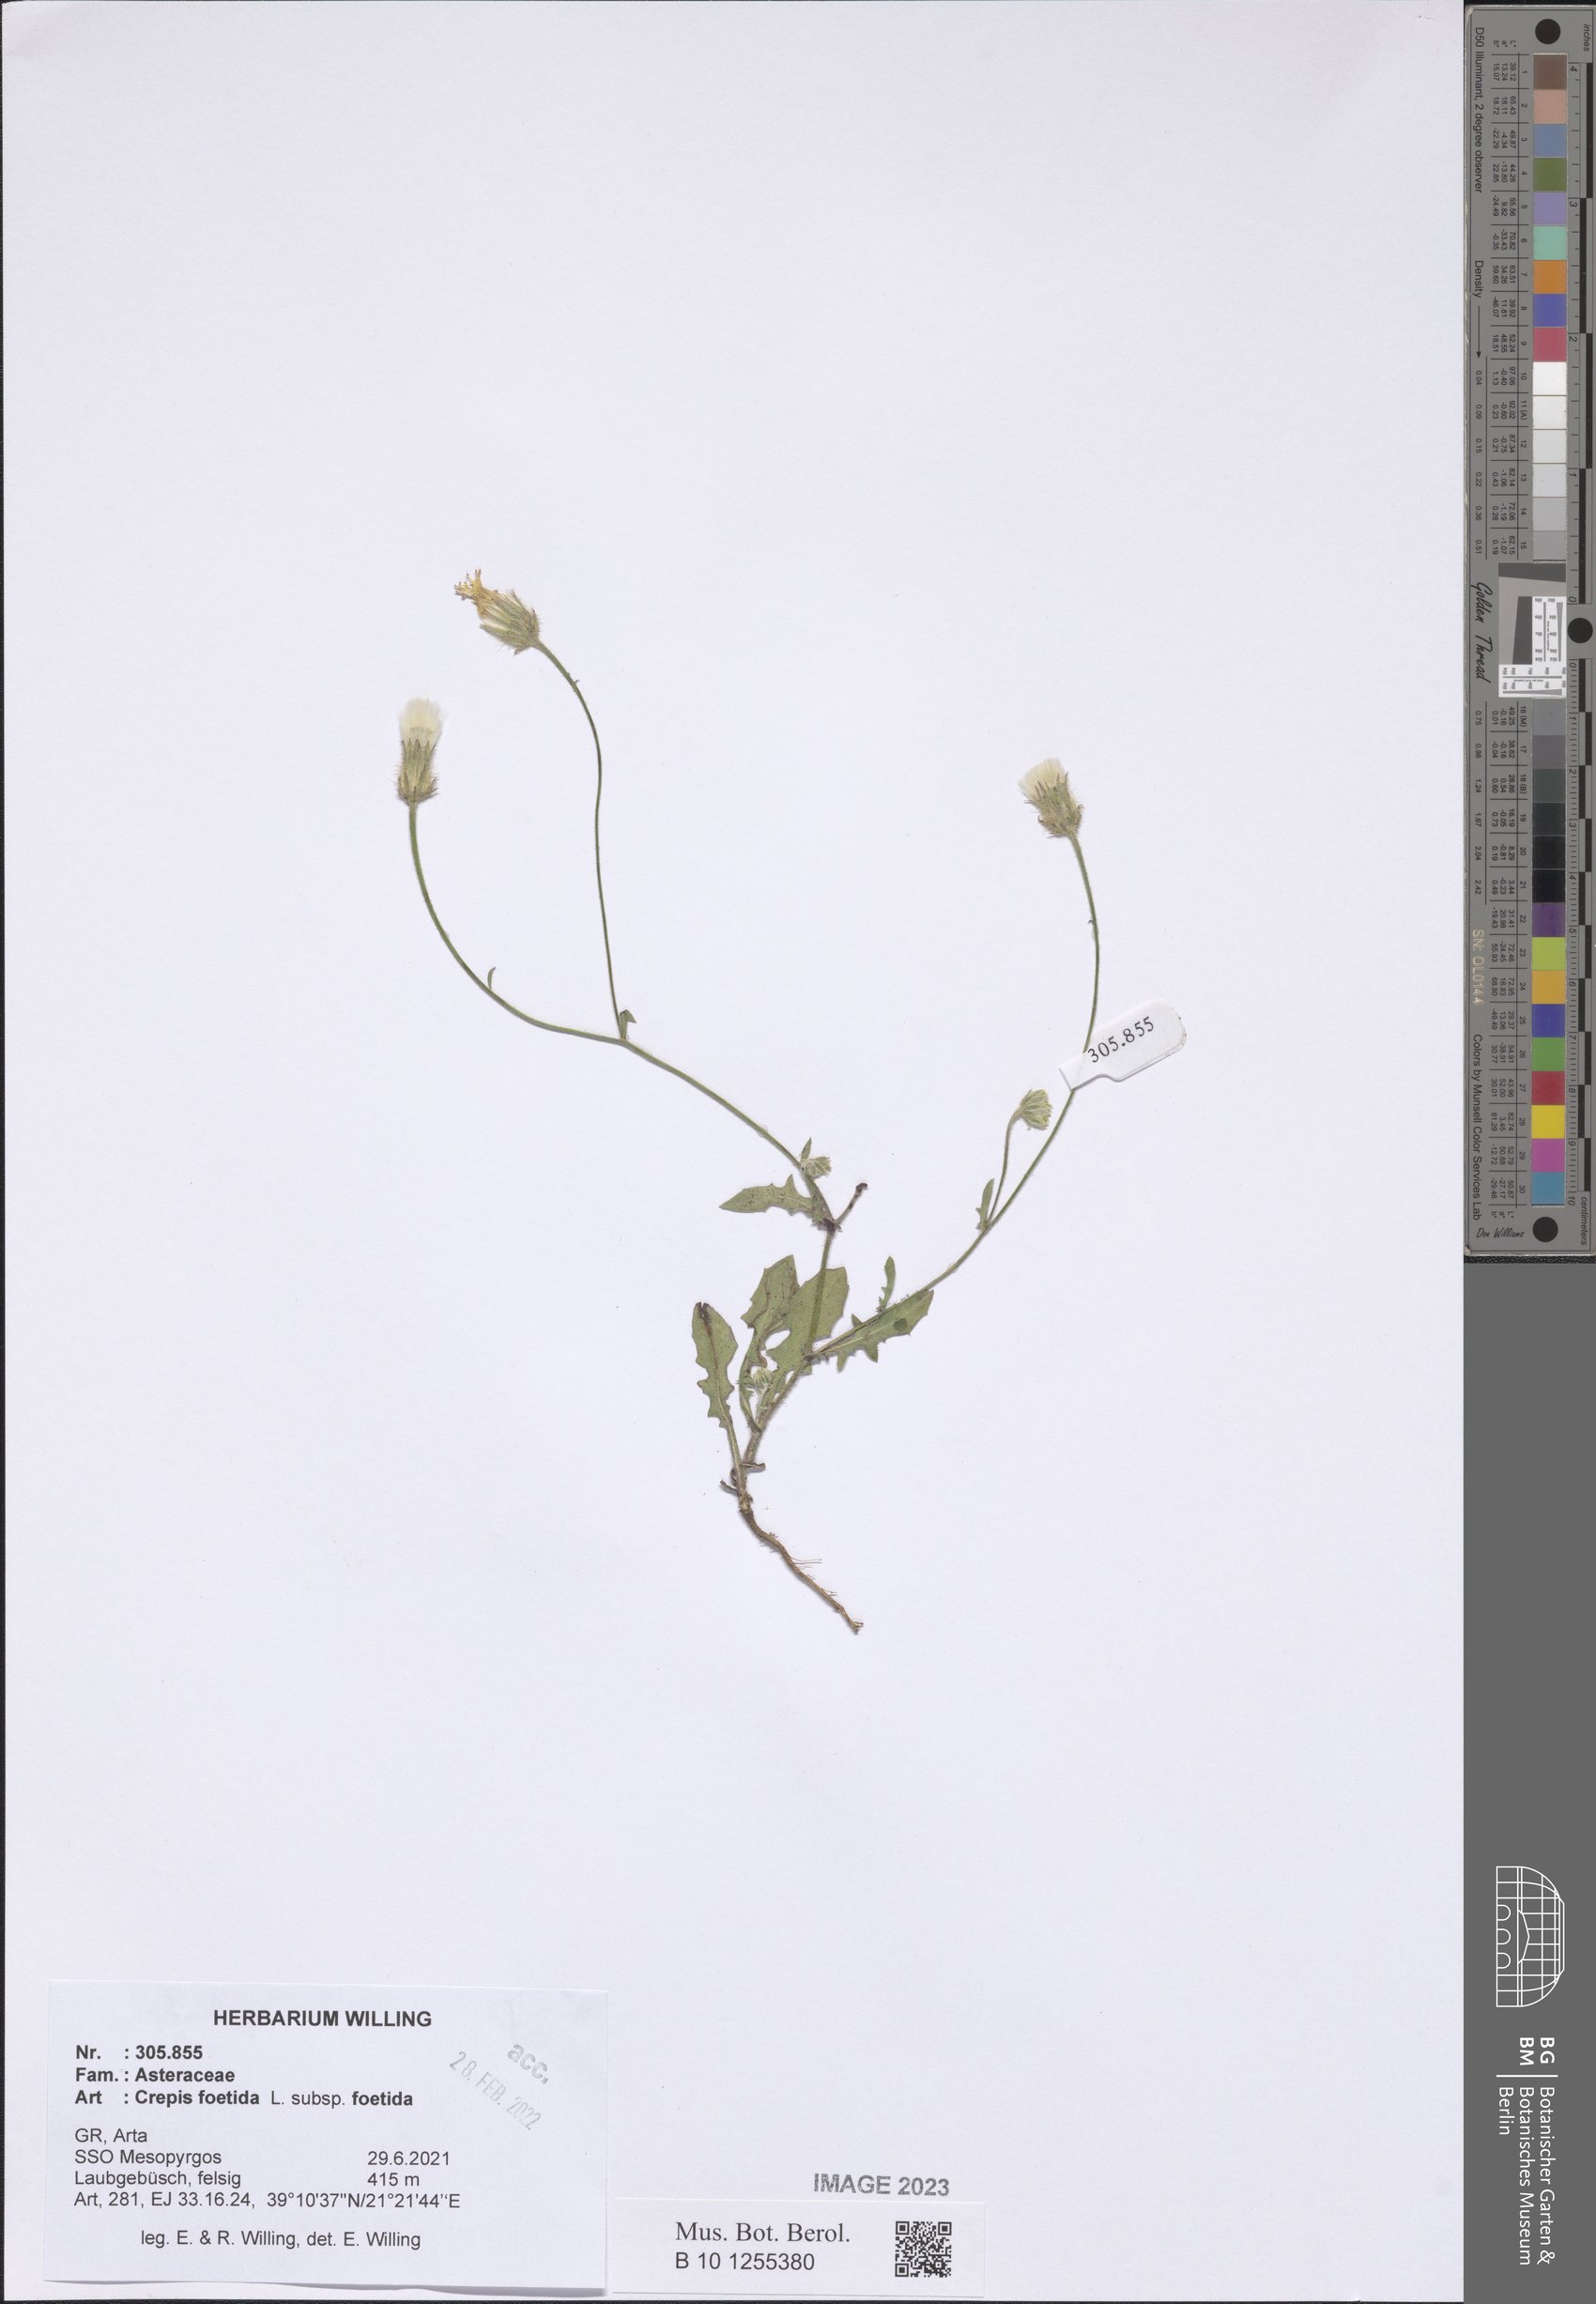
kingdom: Plantae
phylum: Tracheophyta
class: Magnoliopsida
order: Asterales
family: Asteraceae
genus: Crepis
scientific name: Crepis foetida
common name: Stinking hawk's-beard
